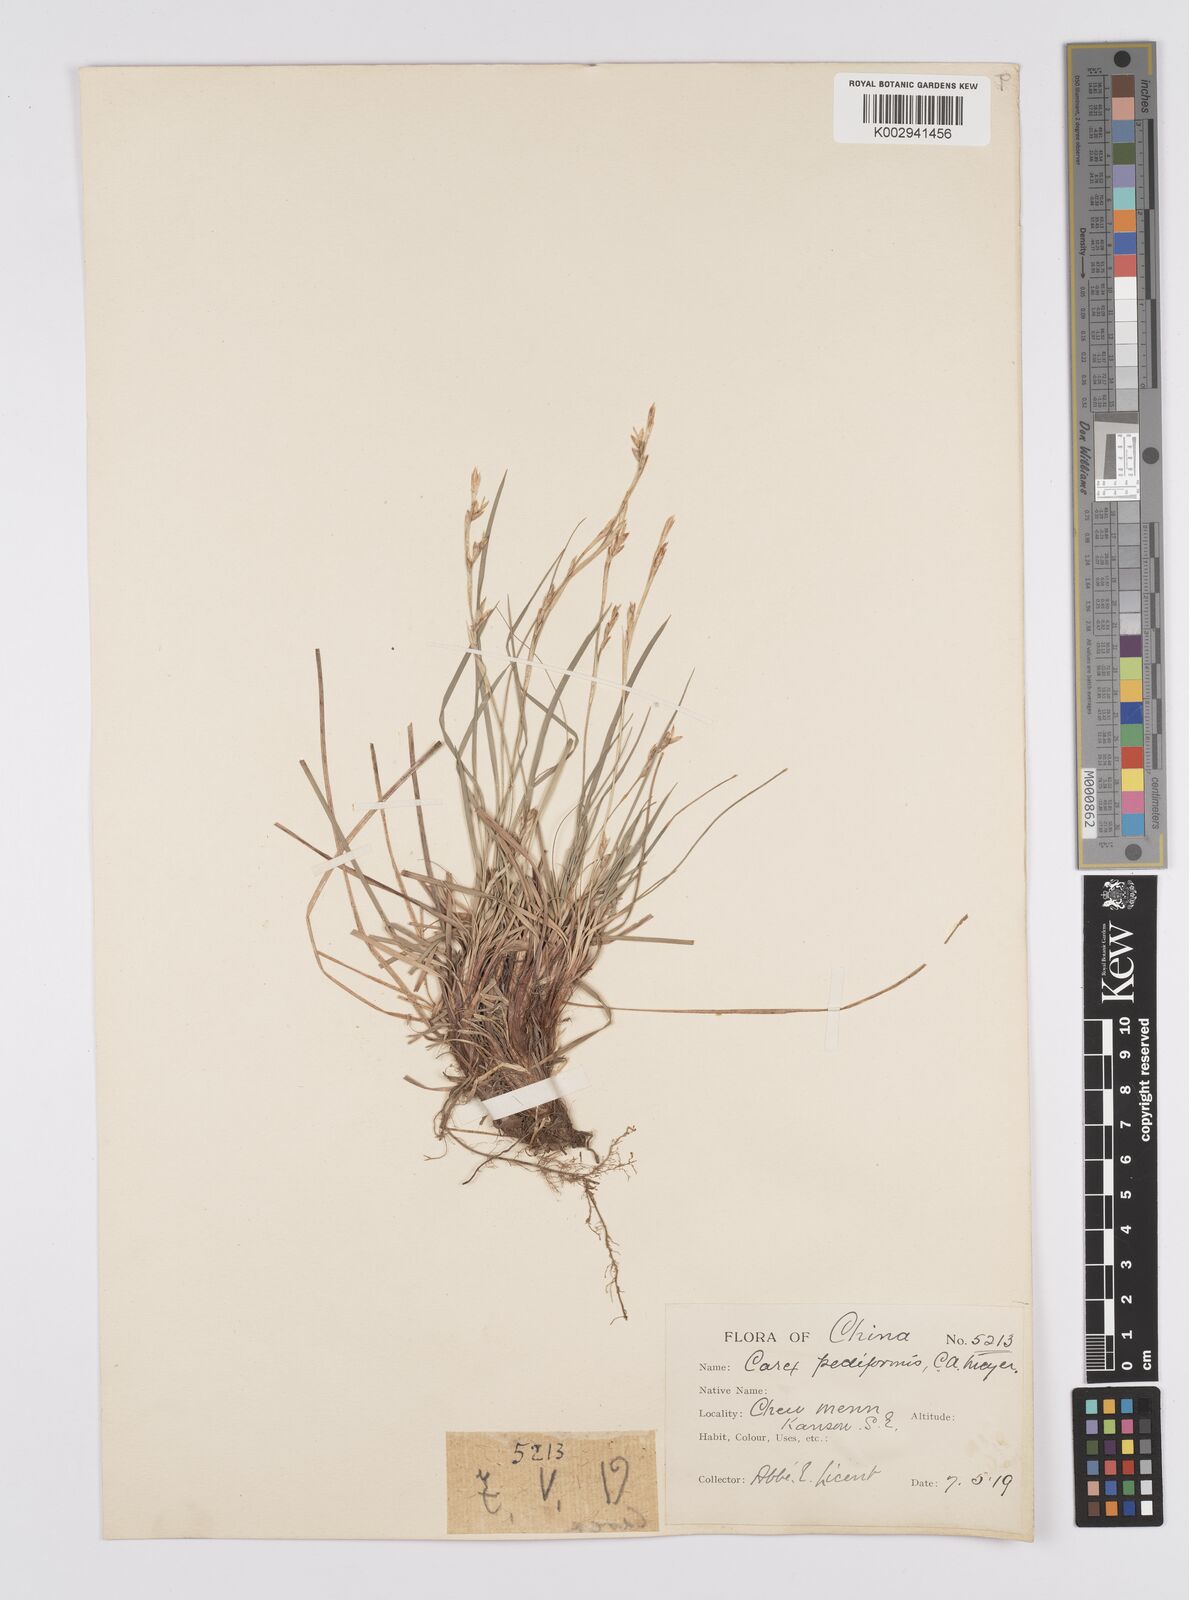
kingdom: Plantae
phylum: Tracheophyta
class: Liliopsida
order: Poales
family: Cyperaceae
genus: Carex
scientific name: Carex lanceolata
